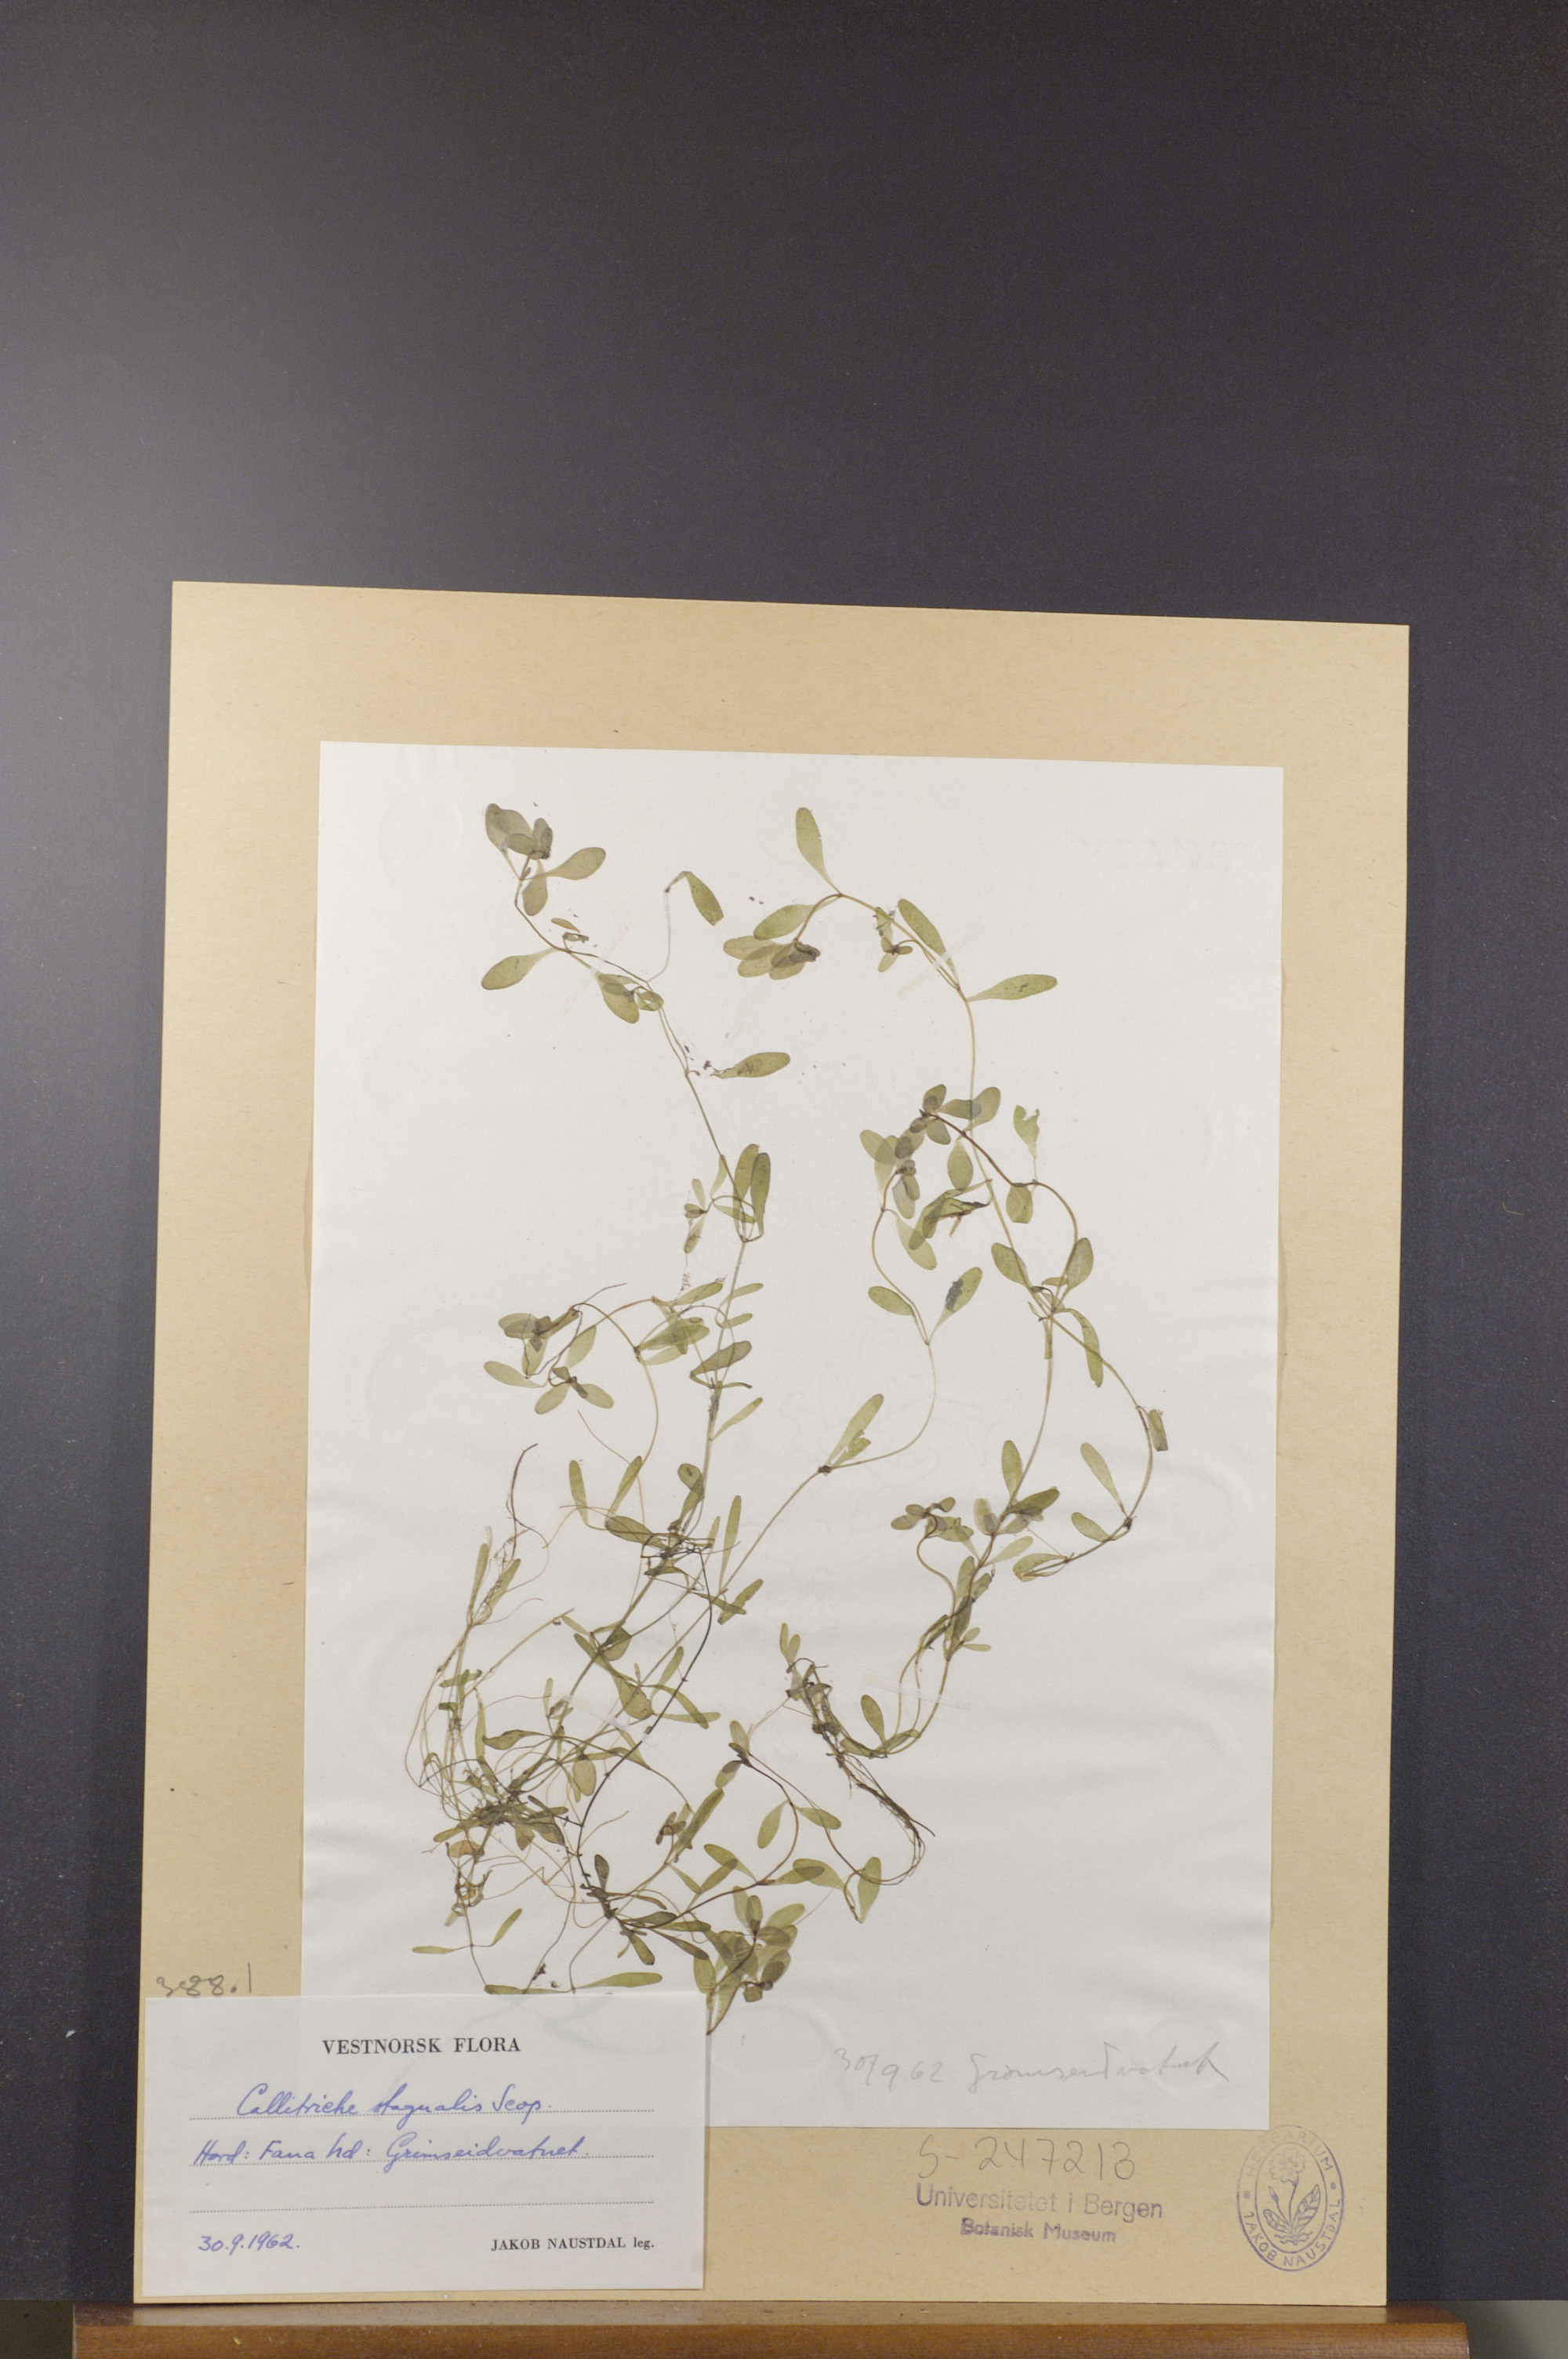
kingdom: Plantae
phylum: Tracheophyta
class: Magnoliopsida
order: Lamiales
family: Plantaginaceae
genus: Callitriche
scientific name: Callitriche stagnalis
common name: Common water-starwort
